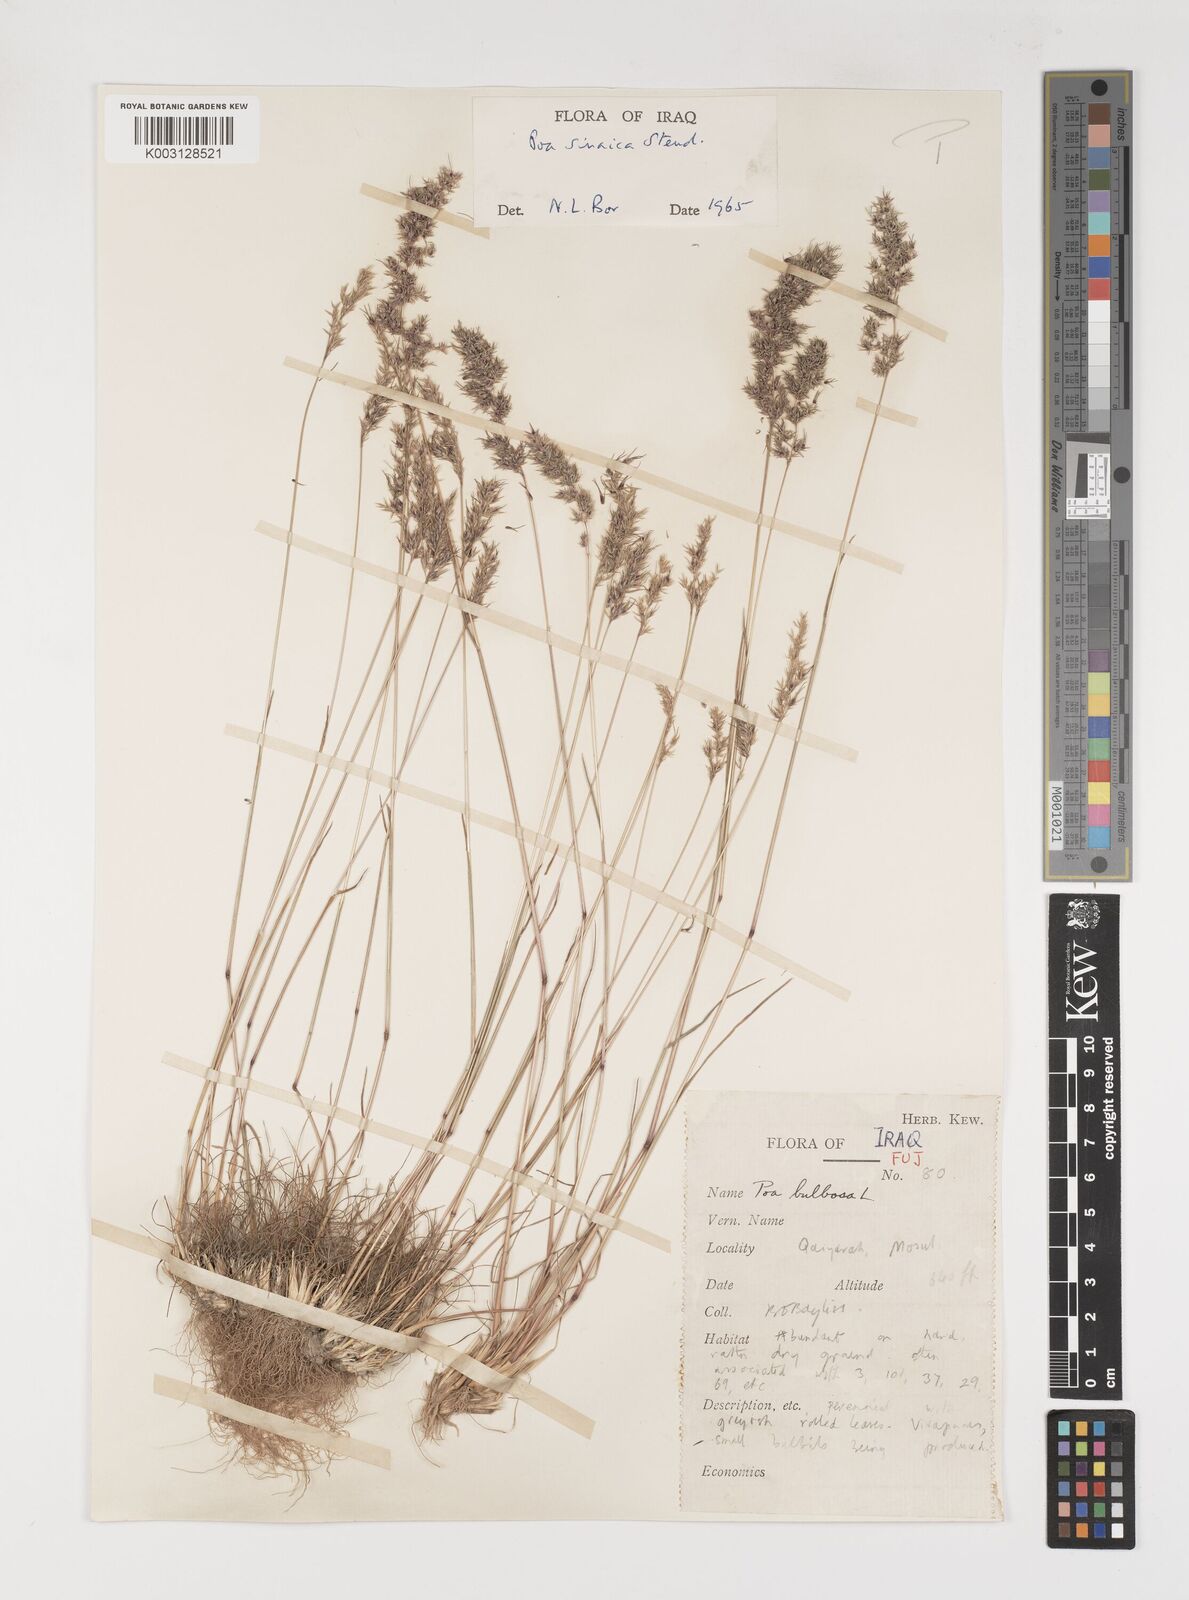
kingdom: Plantae
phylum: Tracheophyta
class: Liliopsida
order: Poales
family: Poaceae
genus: Poa
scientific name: Poa sinaica
